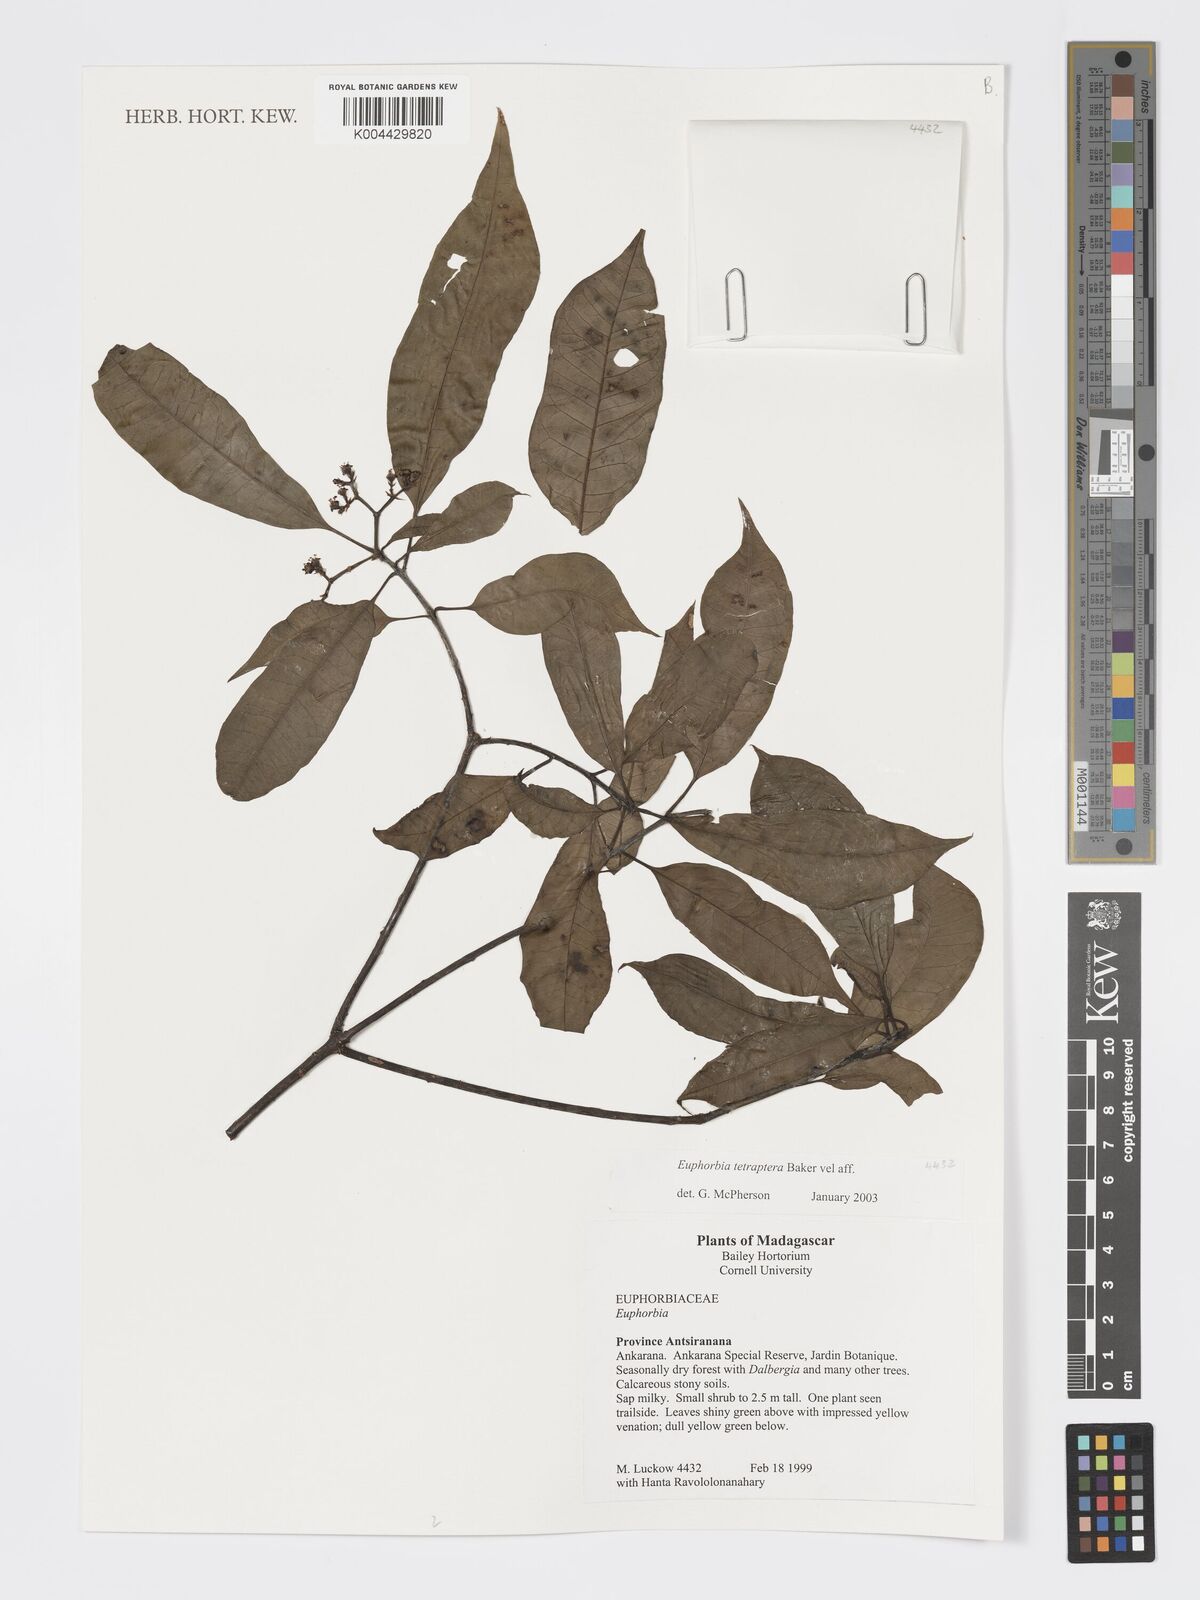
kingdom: Plantae
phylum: Tracheophyta
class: Magnoliopsida
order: Malpighiales
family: Euphorbiaceae
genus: Euphorbia
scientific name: Euphorbia tetraptera
